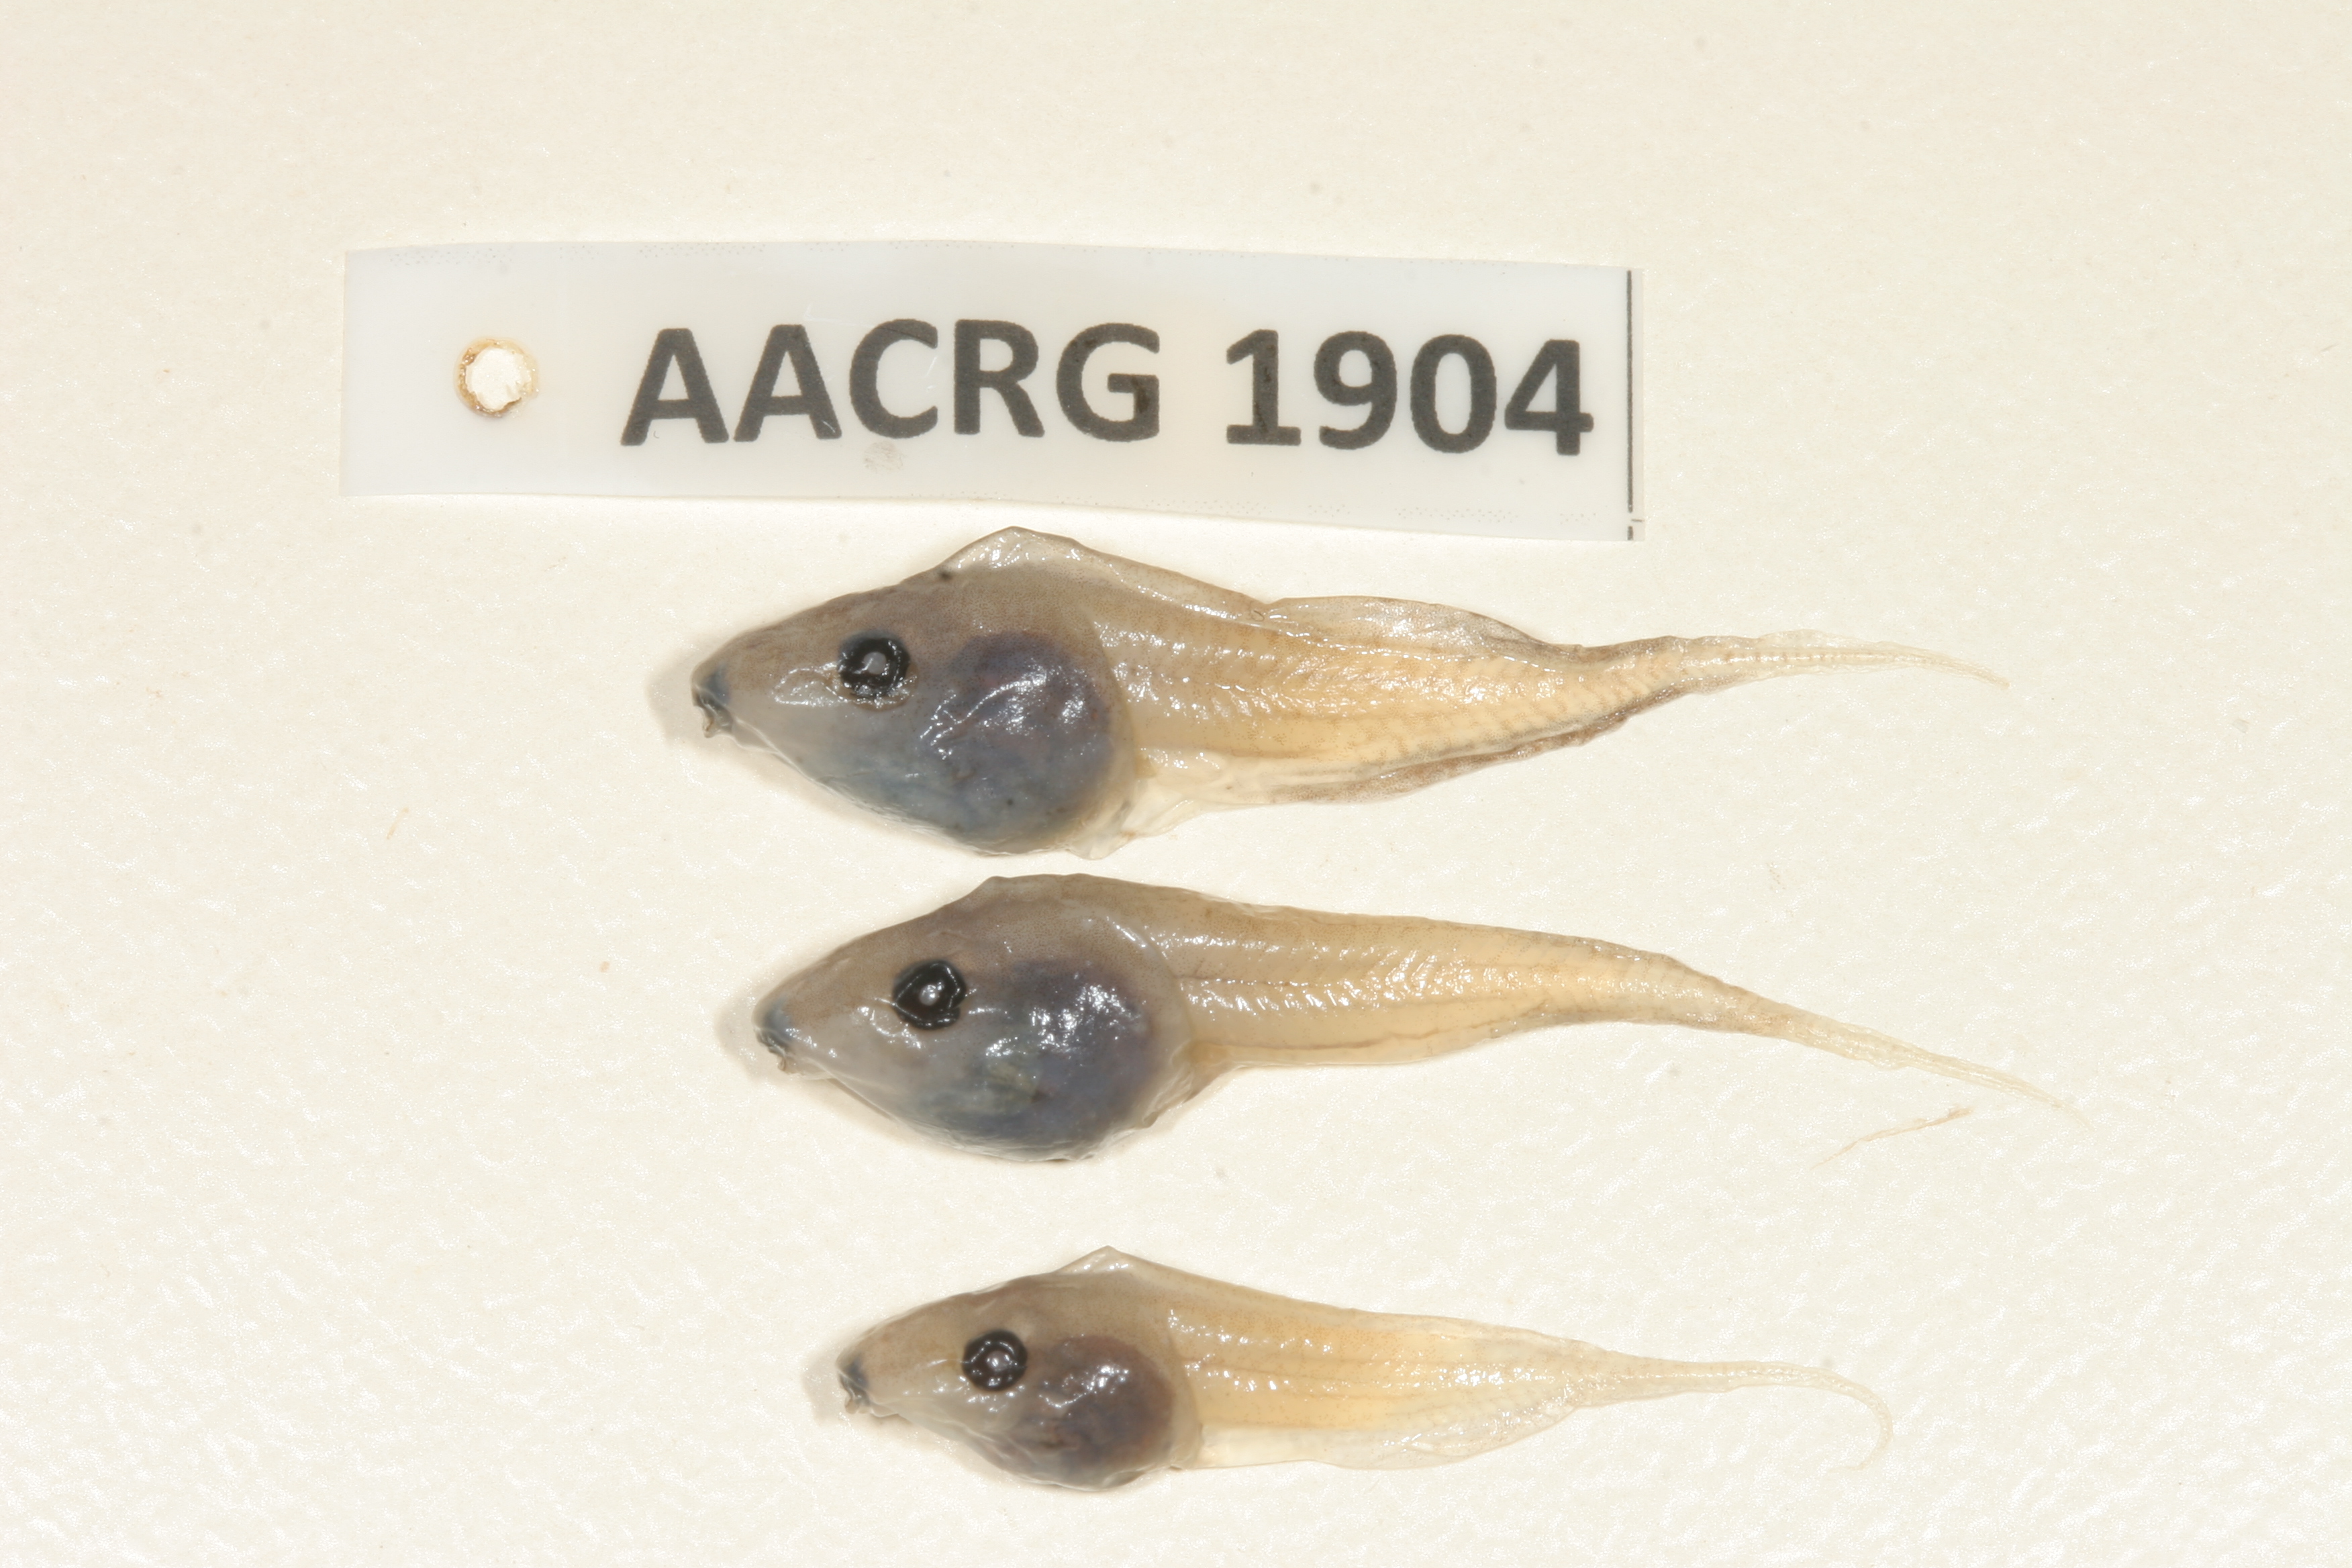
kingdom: Animalia
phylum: Chordata
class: Amphibia
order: Anura
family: Hyperoliidae
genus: Kassina
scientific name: Kassina senegalensis
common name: Senegal land frog
